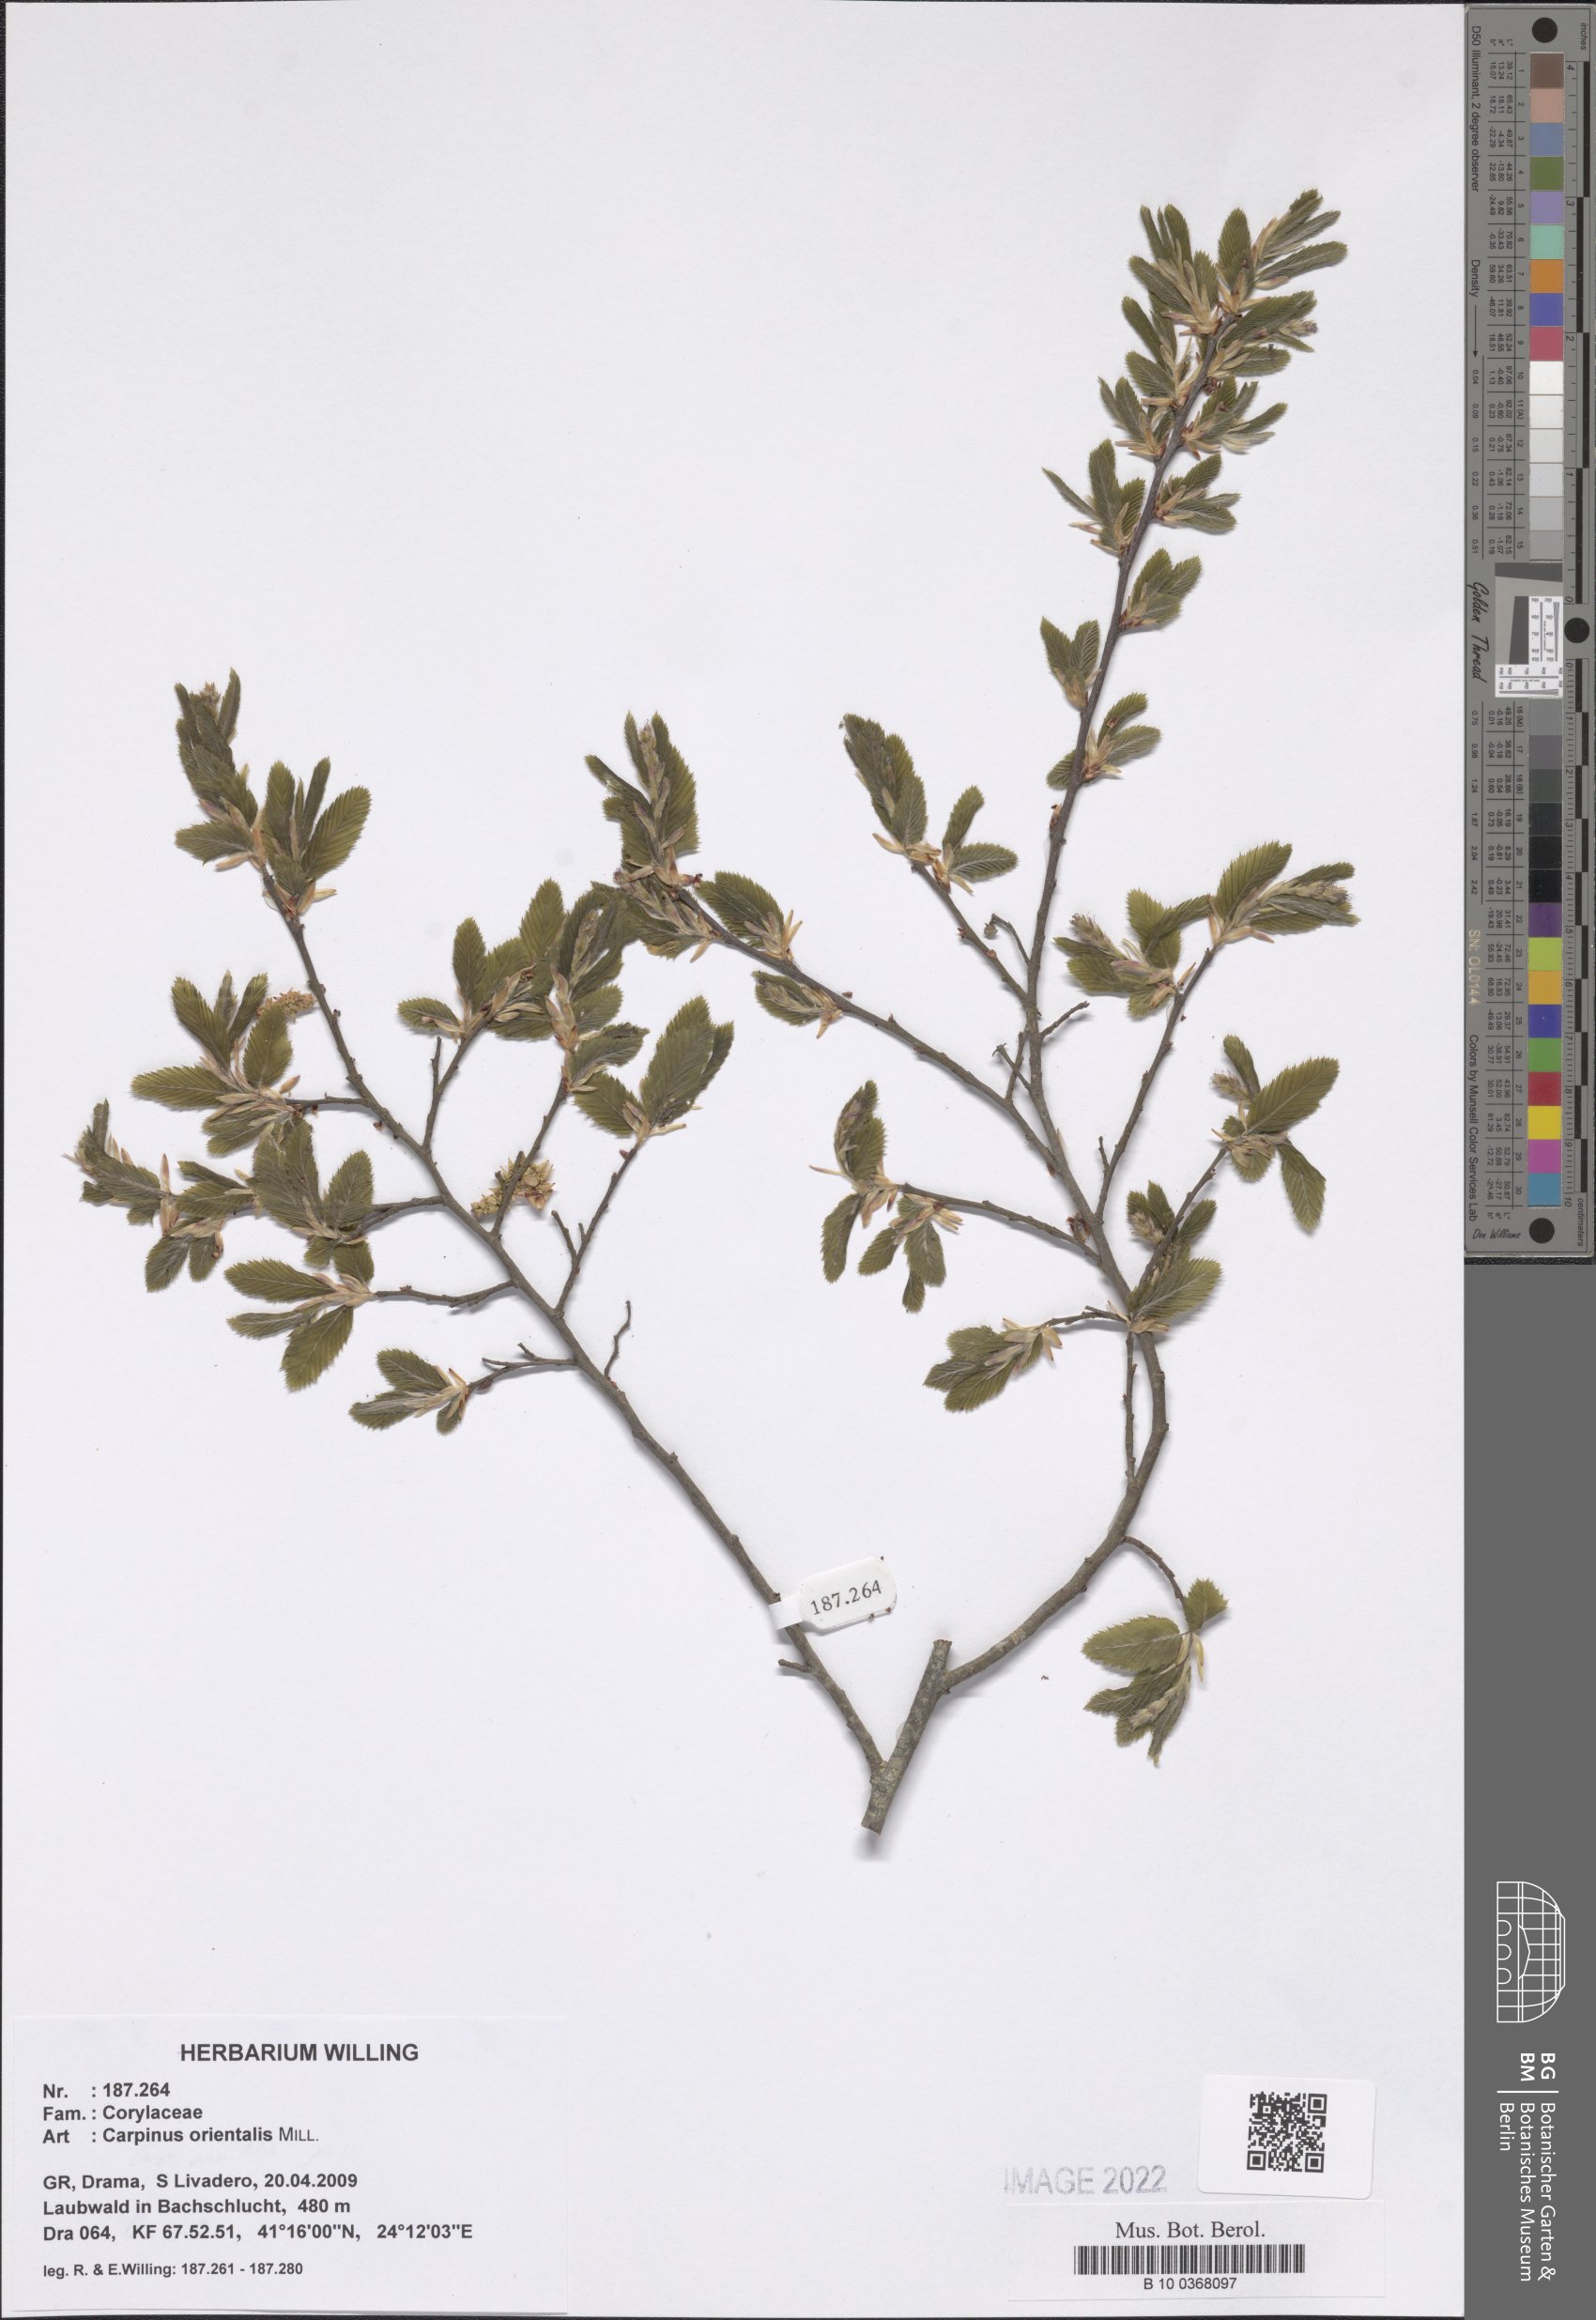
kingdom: Plantae
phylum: Tracheophyta
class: Magnoliopsida
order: Fagales
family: Betulaceae
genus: Carpinus
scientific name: Carpinus orientalis
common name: Eastern hornbeam
